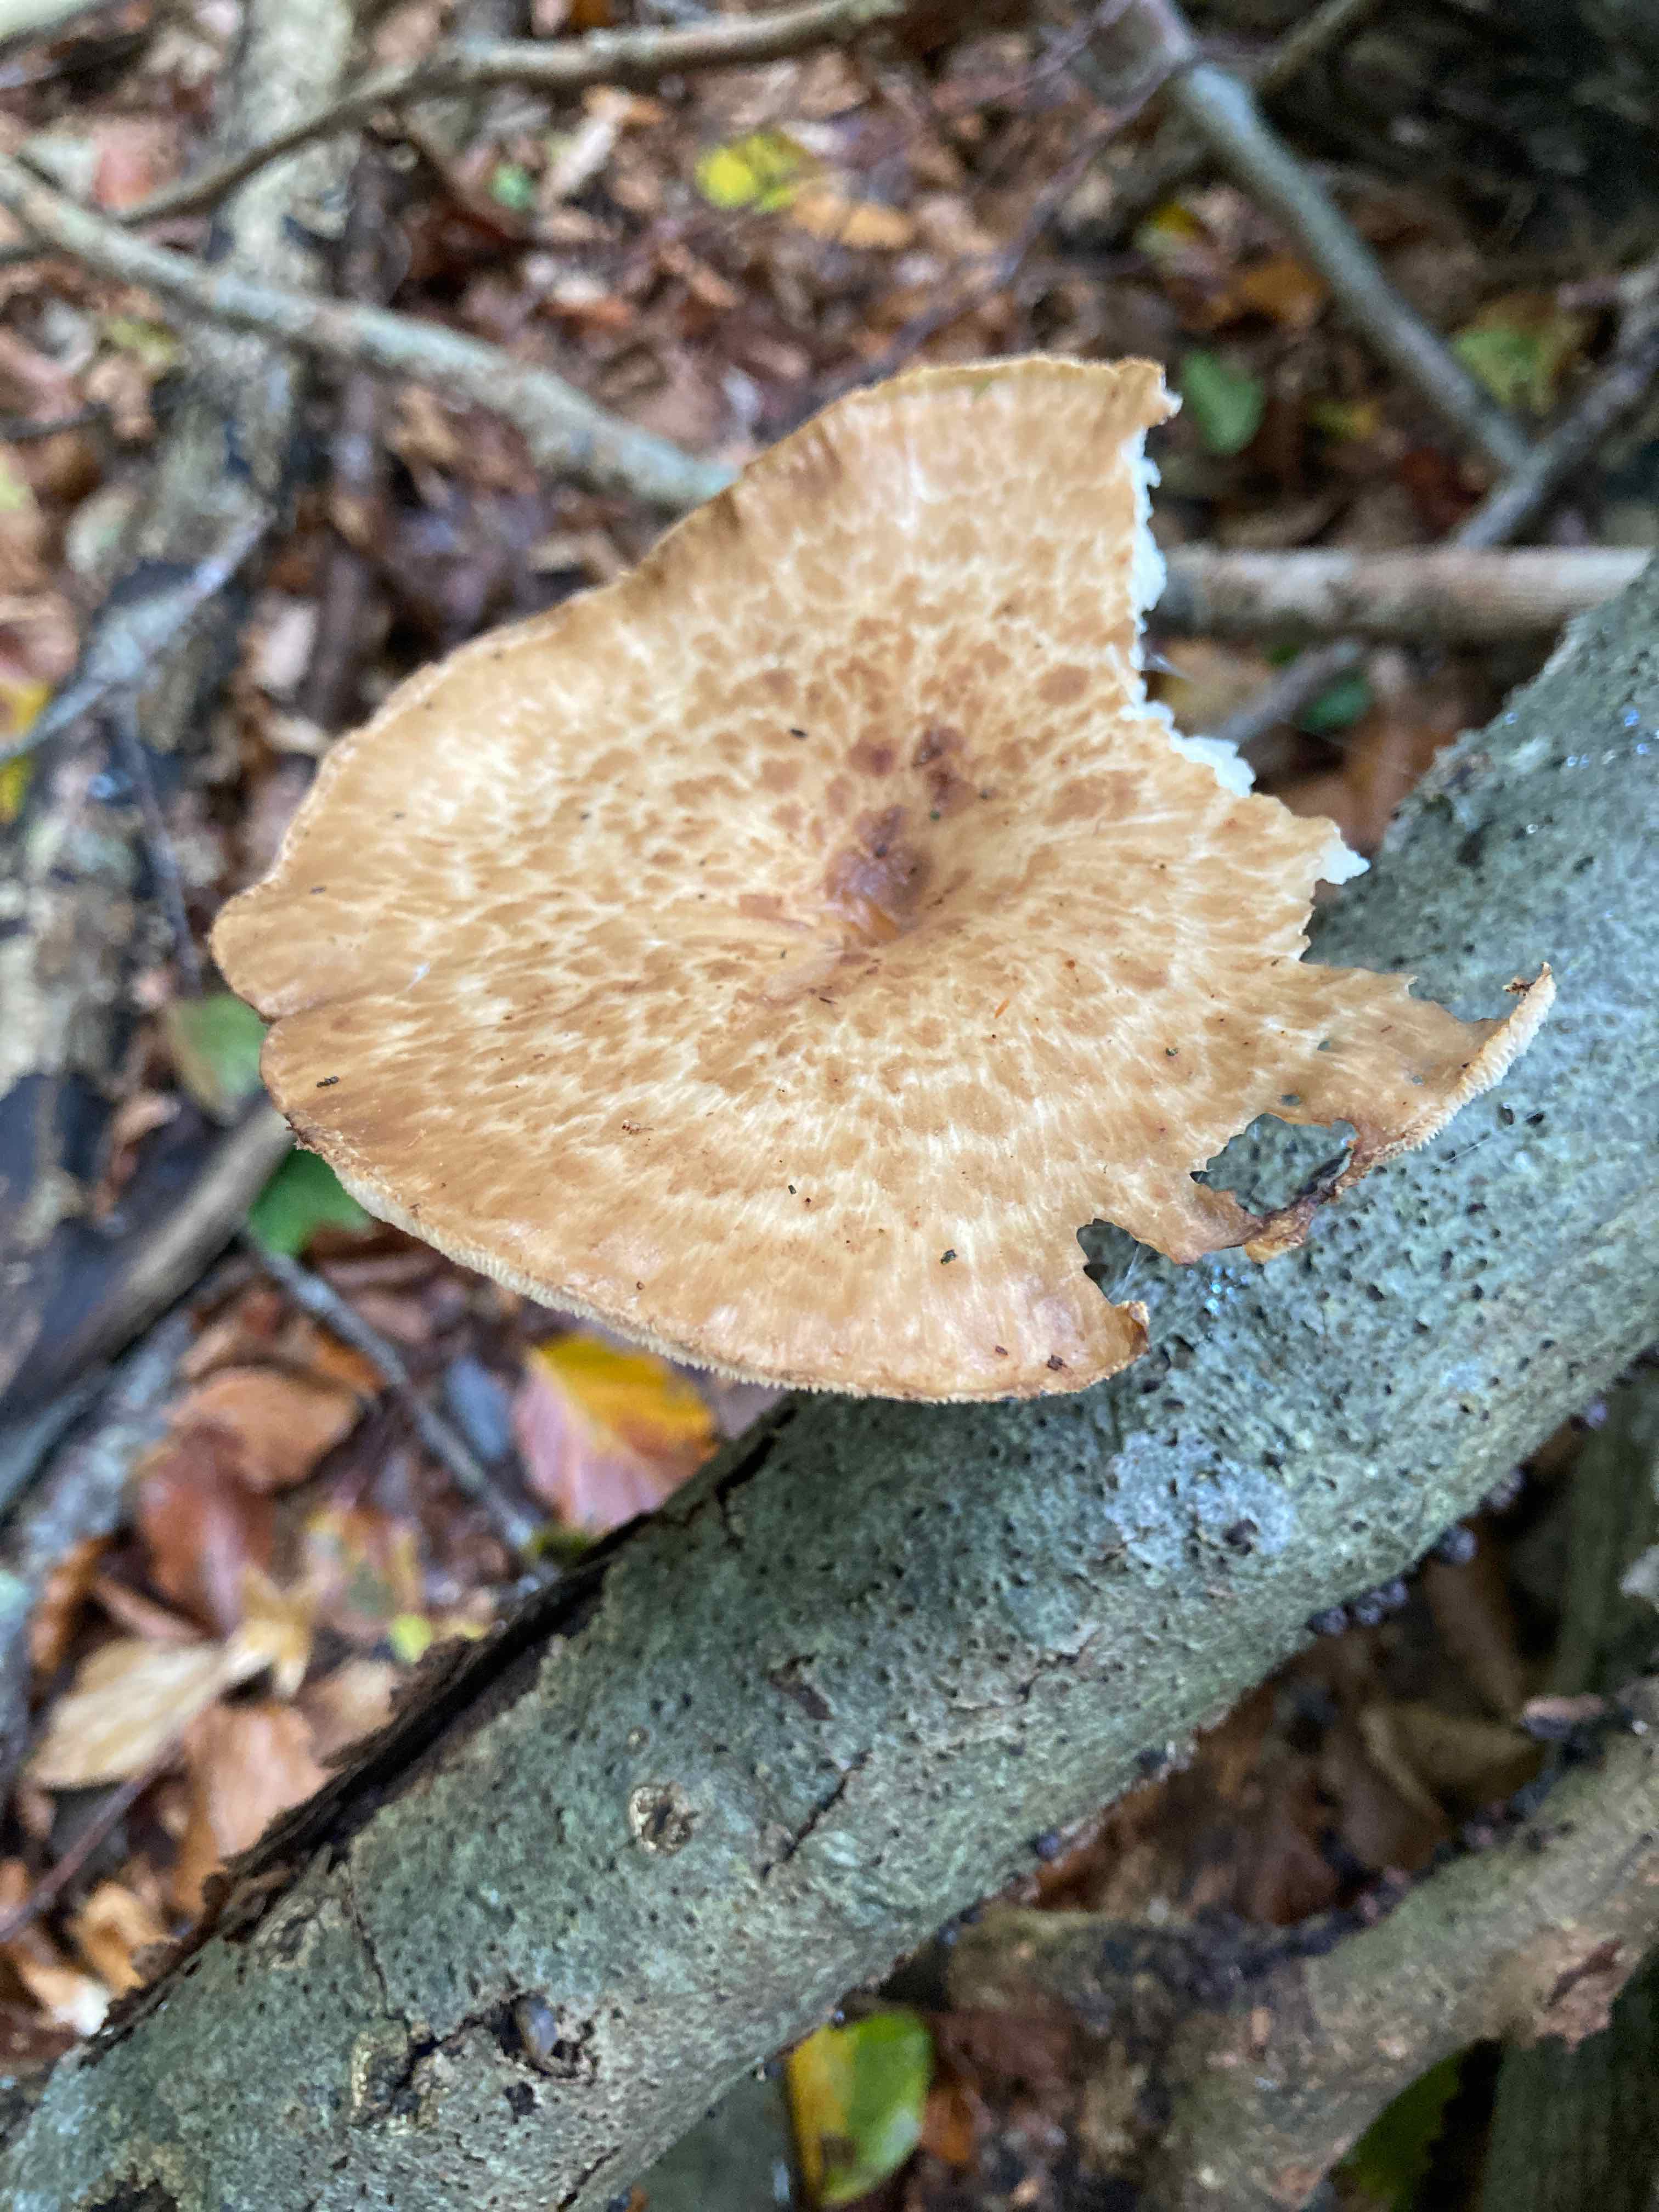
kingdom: Fungi
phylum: Basidiomycota
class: Agaricomycetes
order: Polyporales
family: Polyporaceae
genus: Polyporus
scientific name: Polyporus tuberaster
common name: knoldet stilkporesvamp
